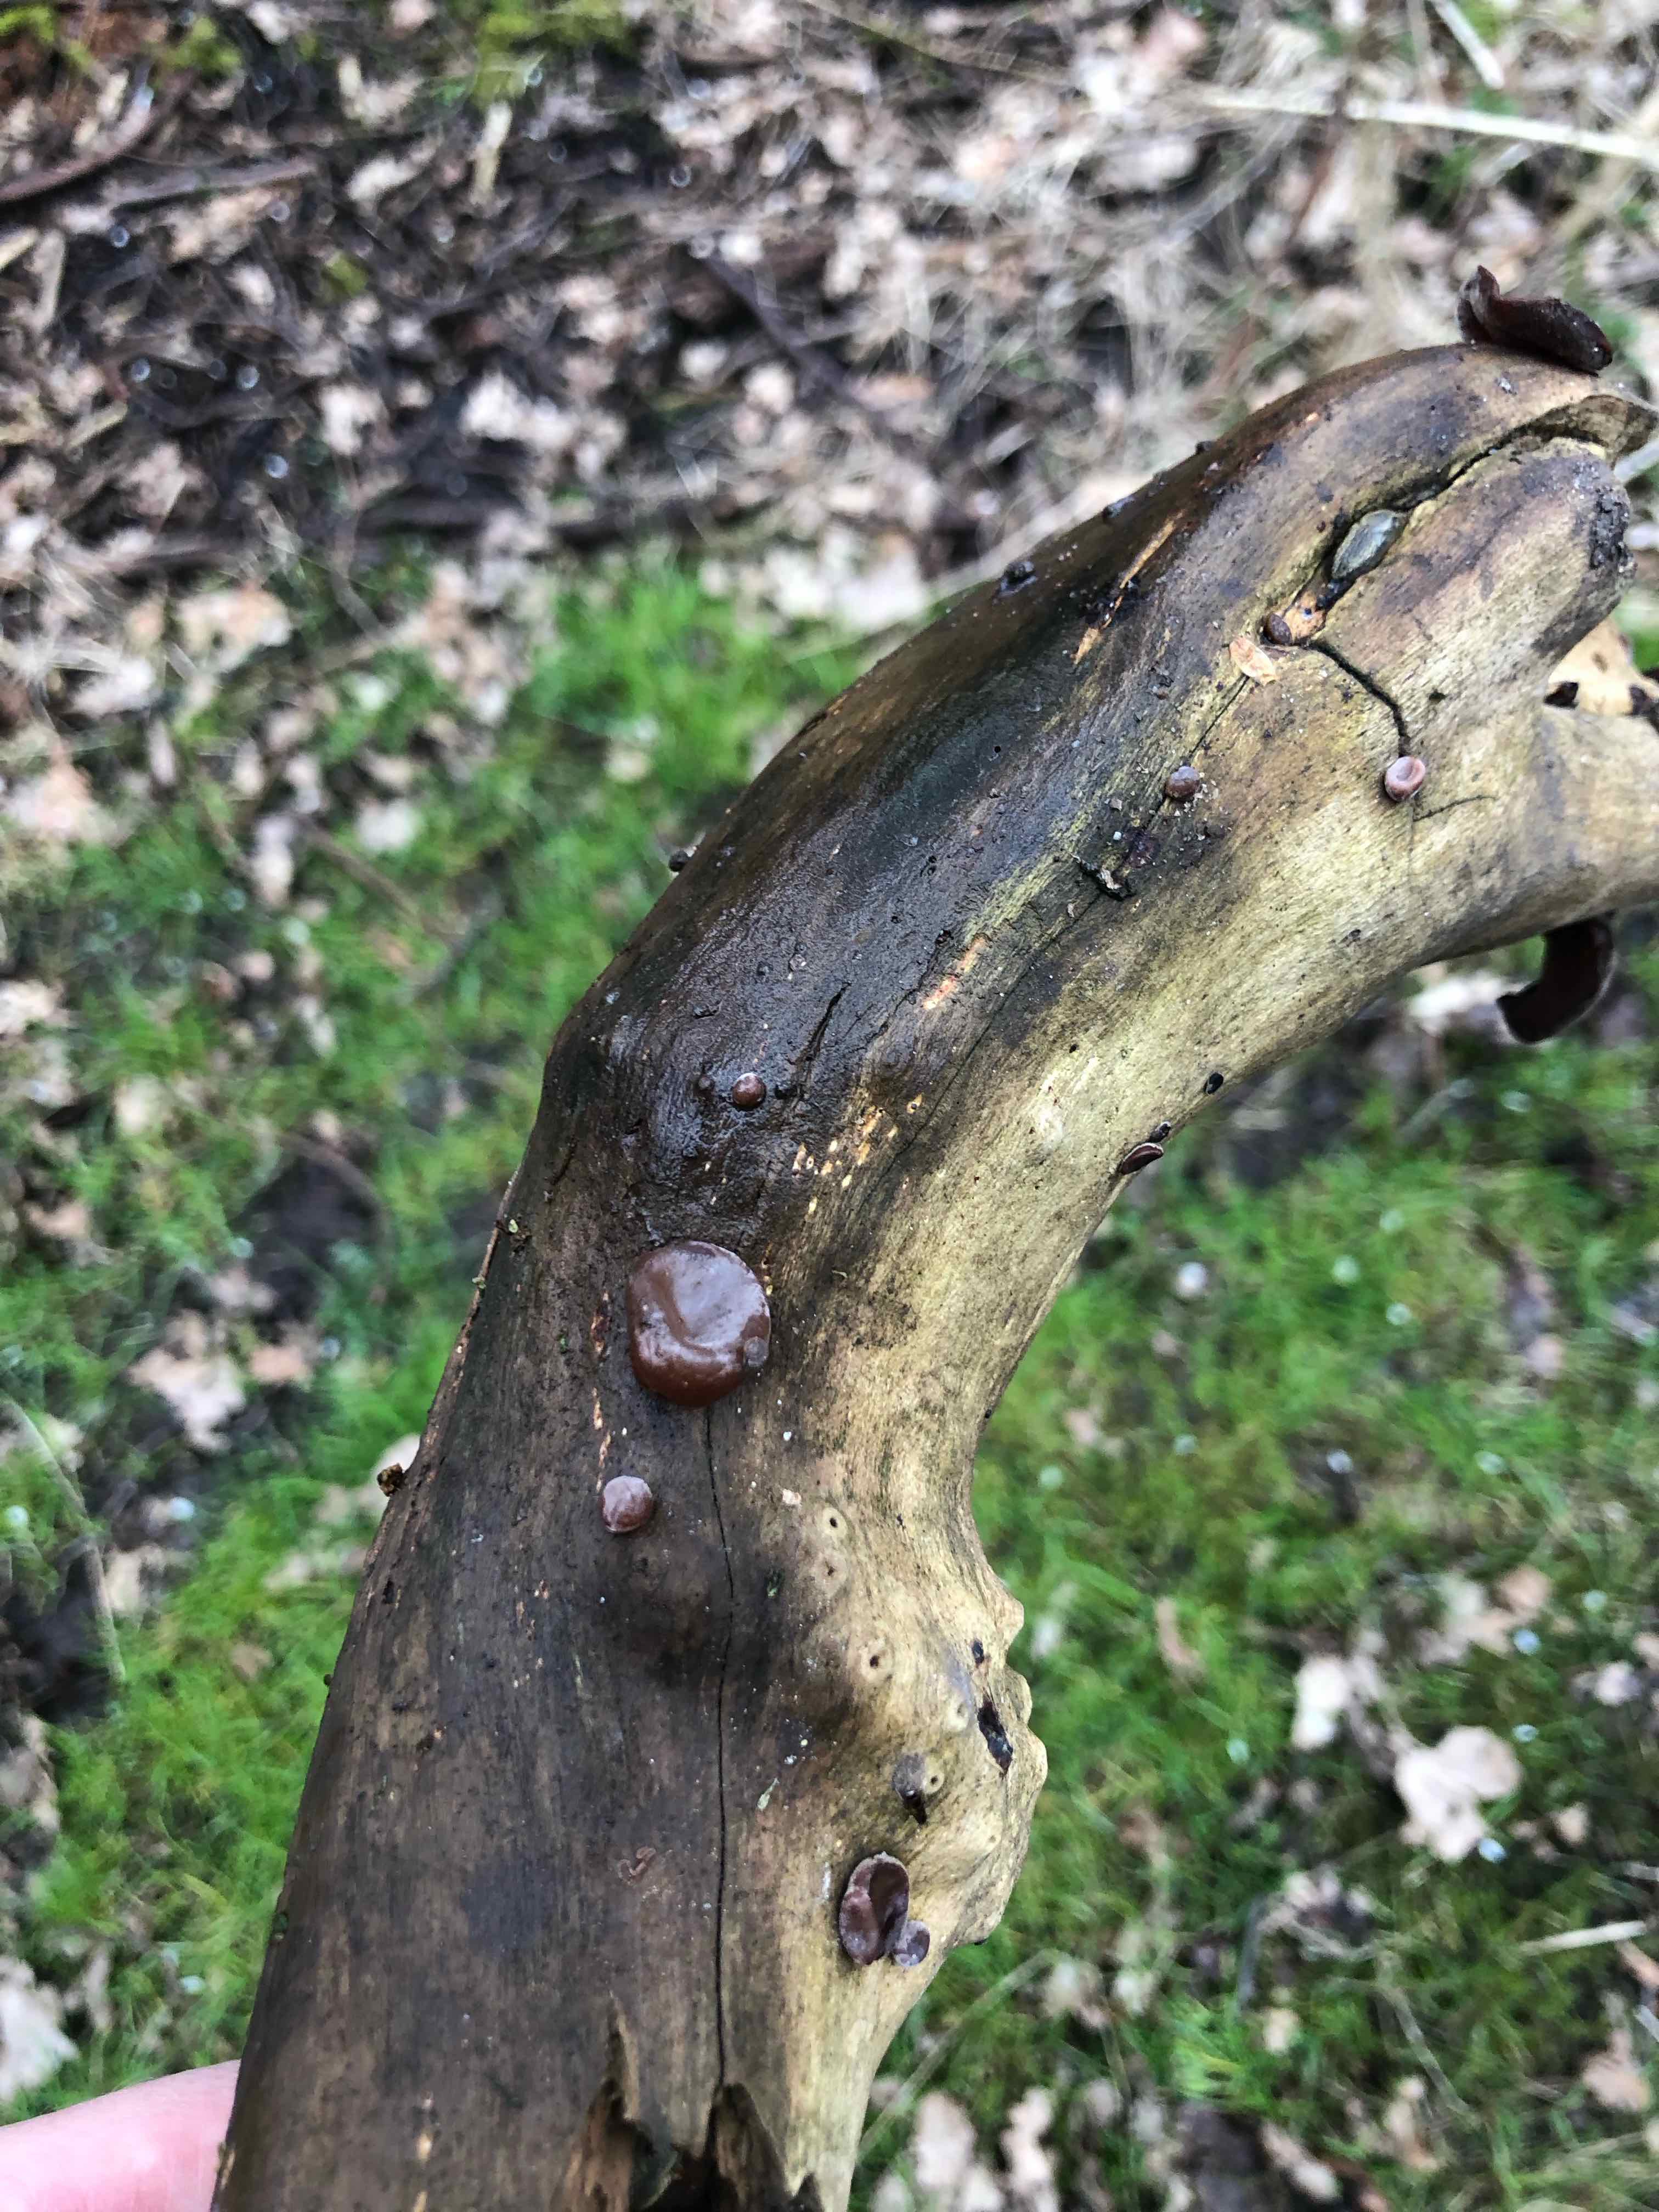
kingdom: Fungi
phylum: Basidiomycota
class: Agaricomycetes
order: Auriculariales
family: Auriculariaceae
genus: Auricularia
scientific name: Auricularia auricula-judae
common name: almindelig judasøre
